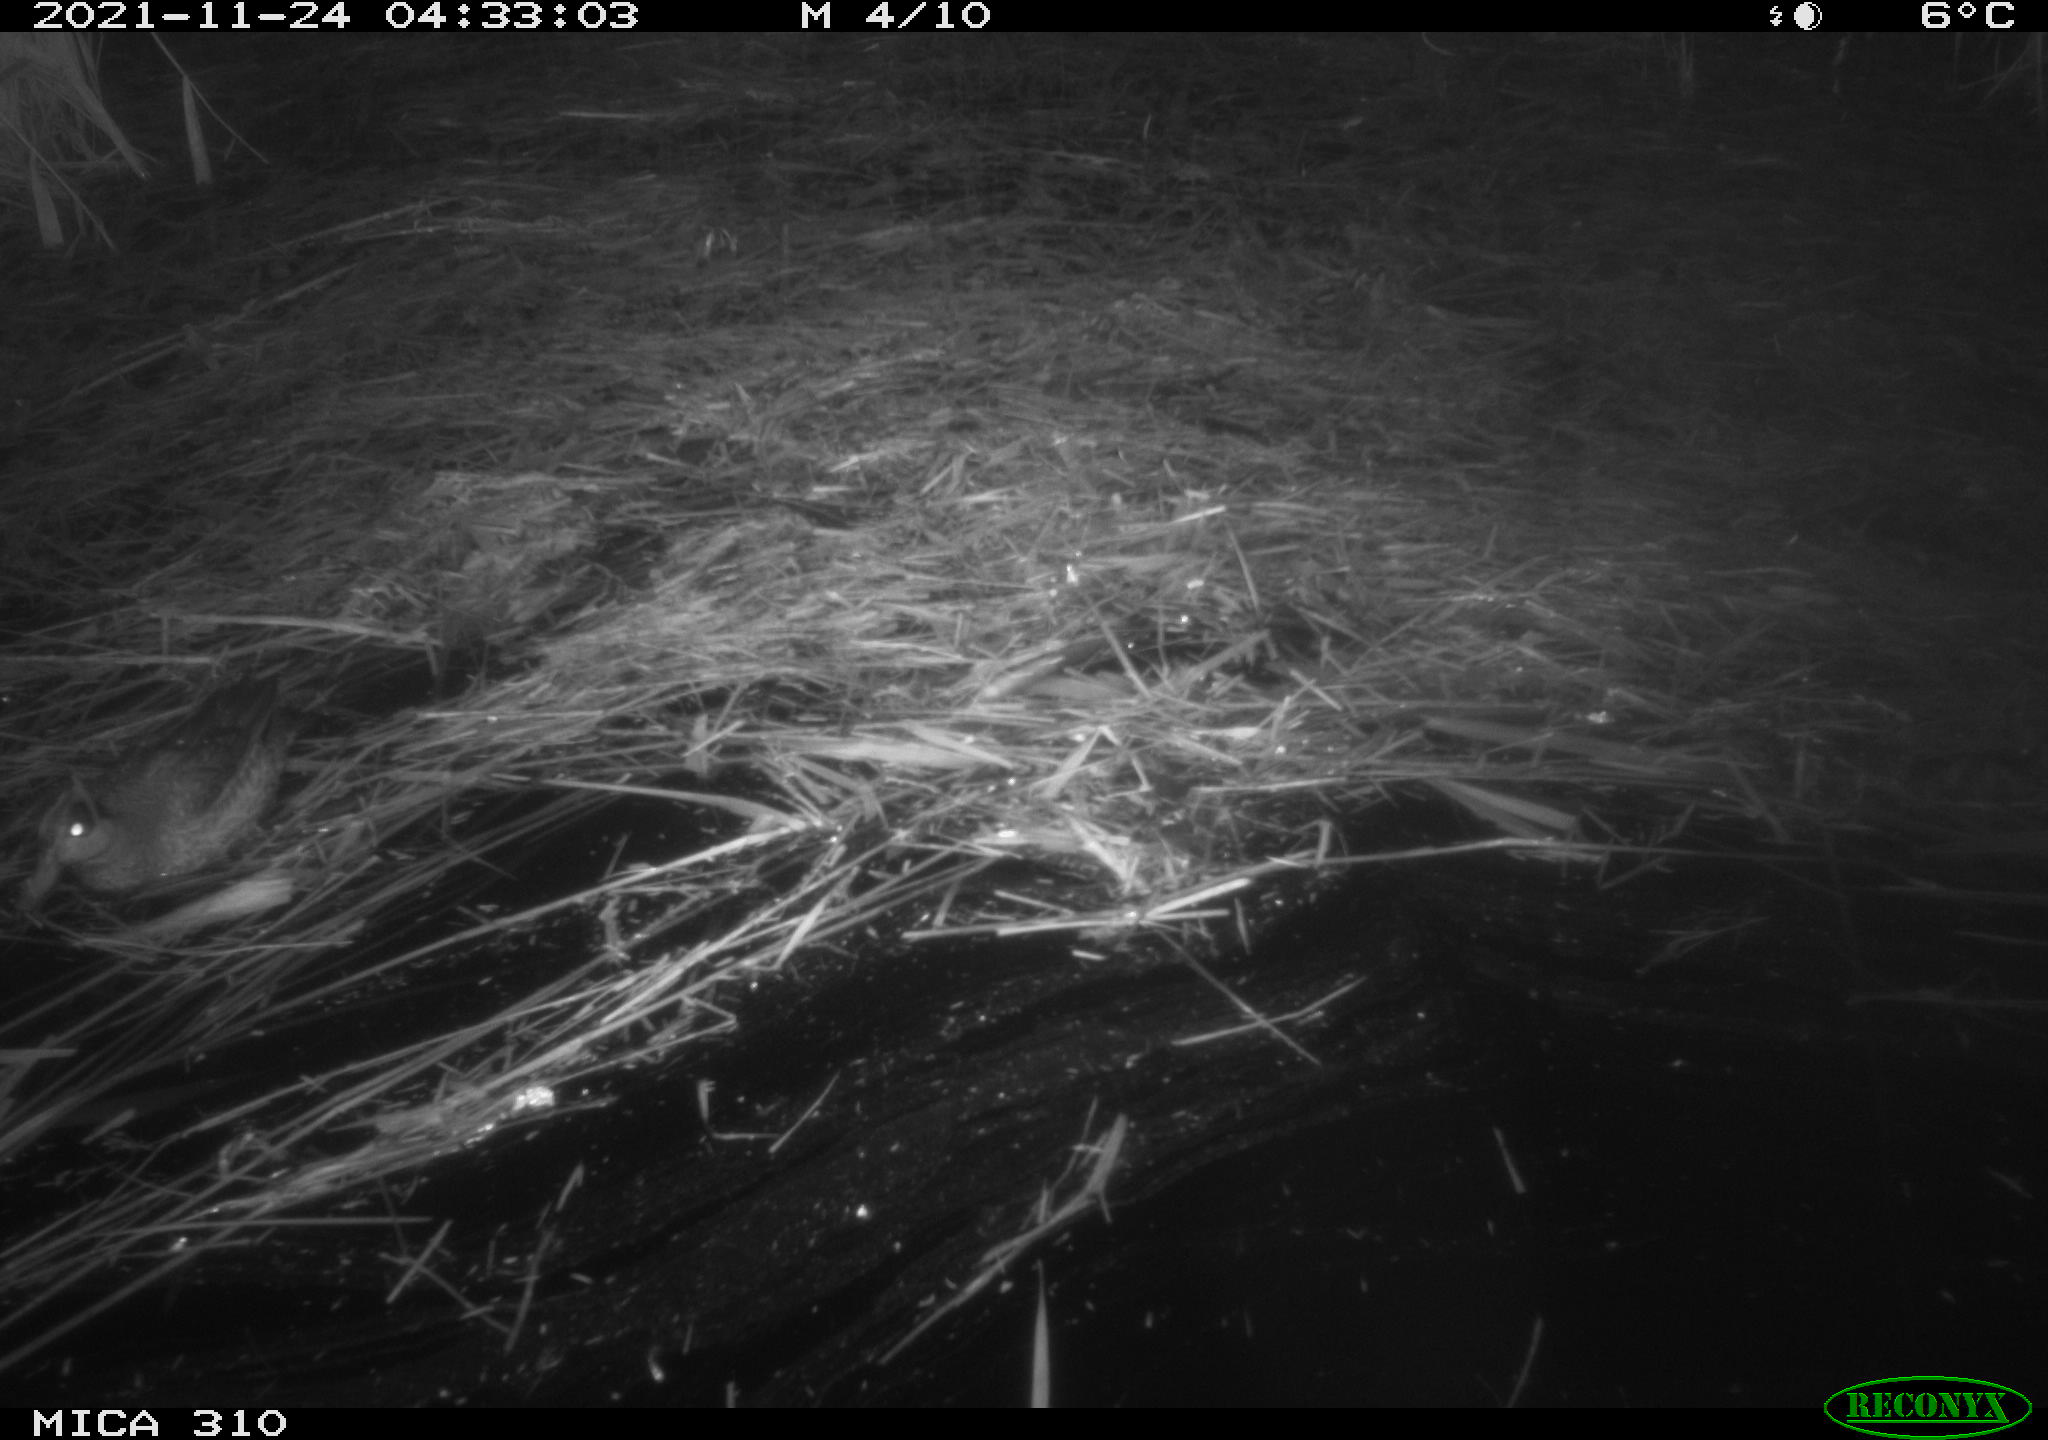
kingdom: Animalia
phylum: Chordata
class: Aves
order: Anseriformes
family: Anatidae
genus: Anas
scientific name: Anas platyrhynchos
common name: Mallard
